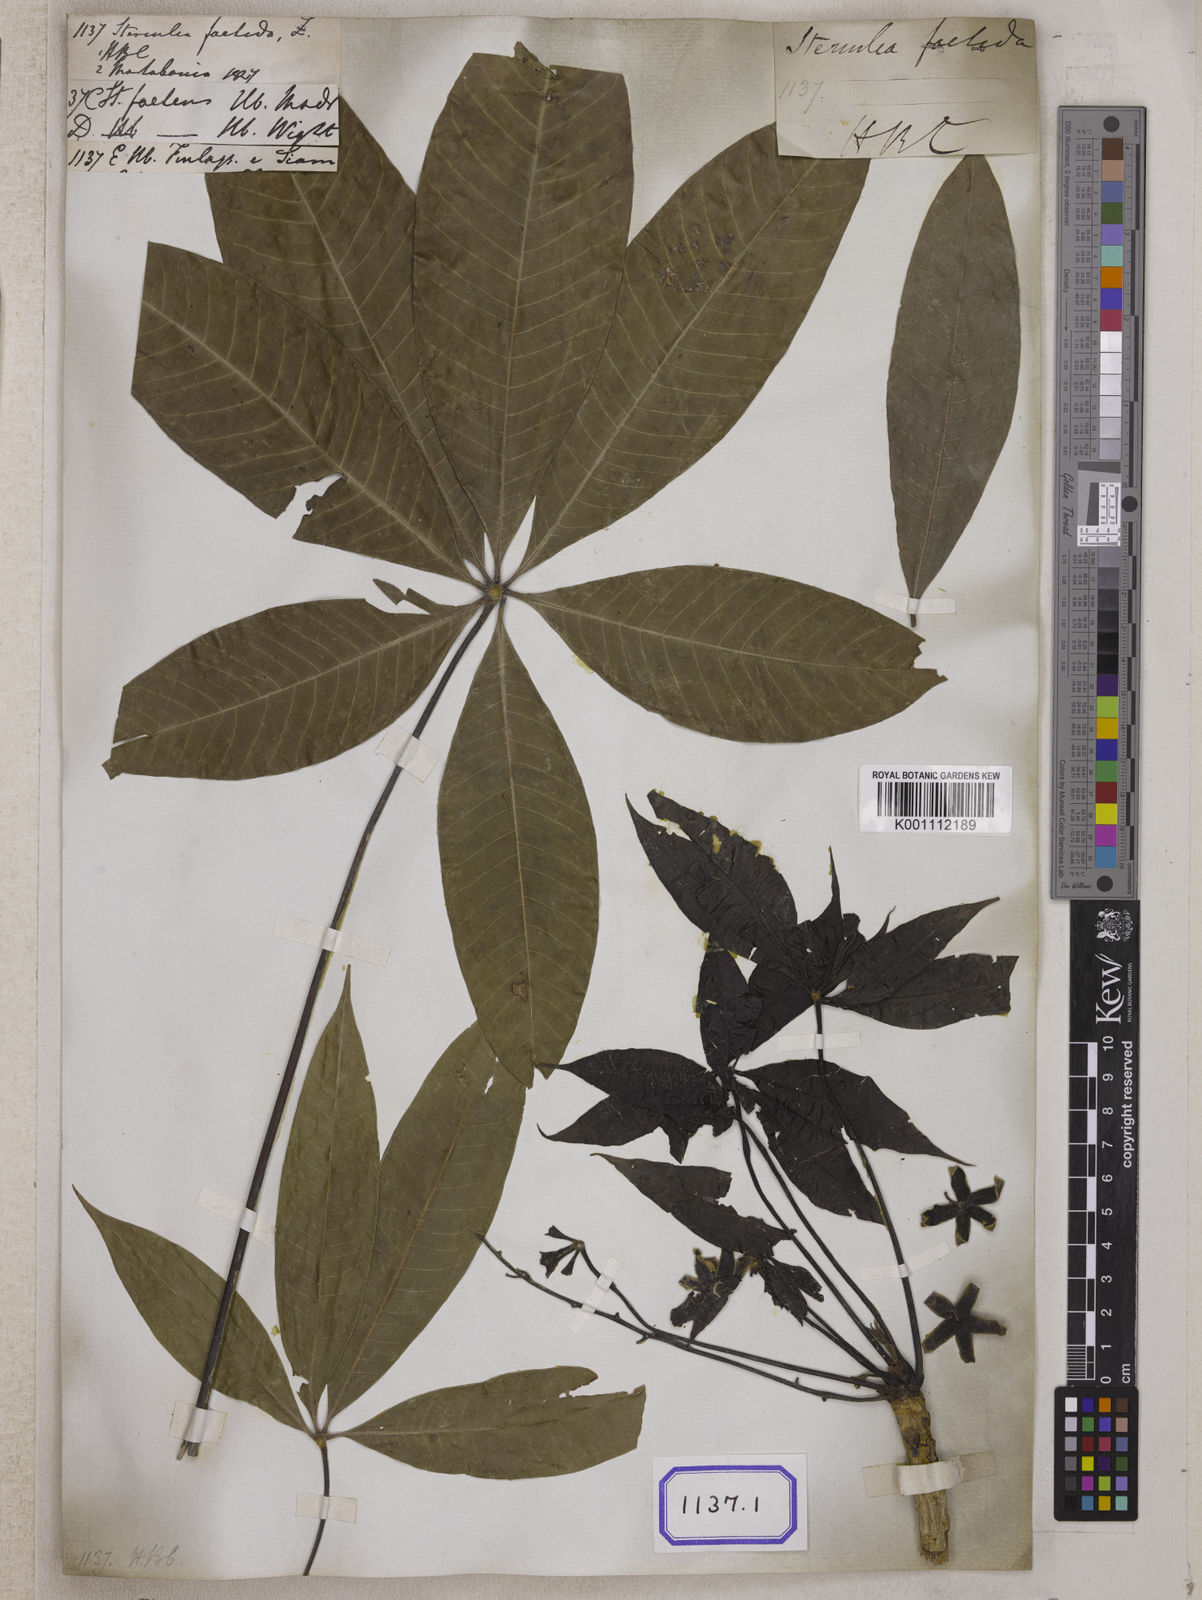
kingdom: Plantae
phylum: Tracheophyta
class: Magnoliopsida
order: Malvales
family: Malvaceae
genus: Sterculia
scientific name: Sterculia foetida
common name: Hazel sterculia
